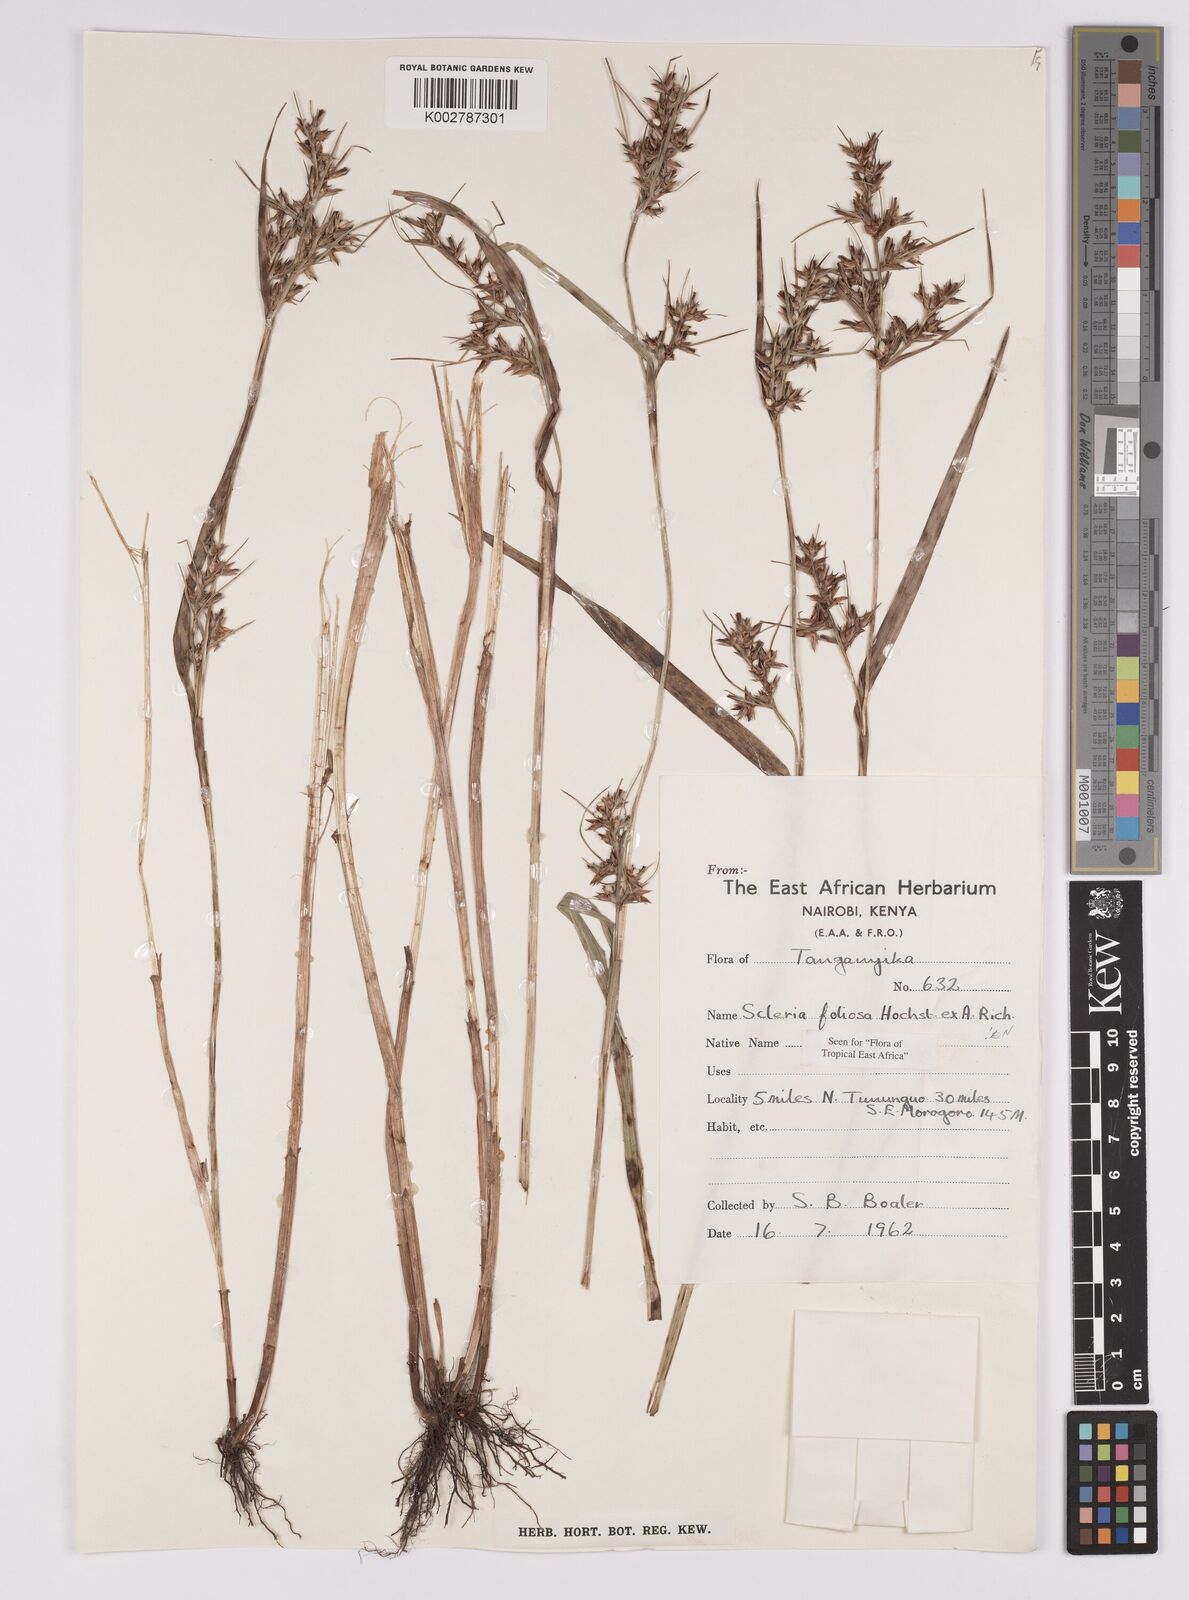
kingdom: Plantae
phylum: Tracheophyta
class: Liliopsida
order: Poales
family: Cyperaceae
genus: Scleria
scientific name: Scleria foliosa
